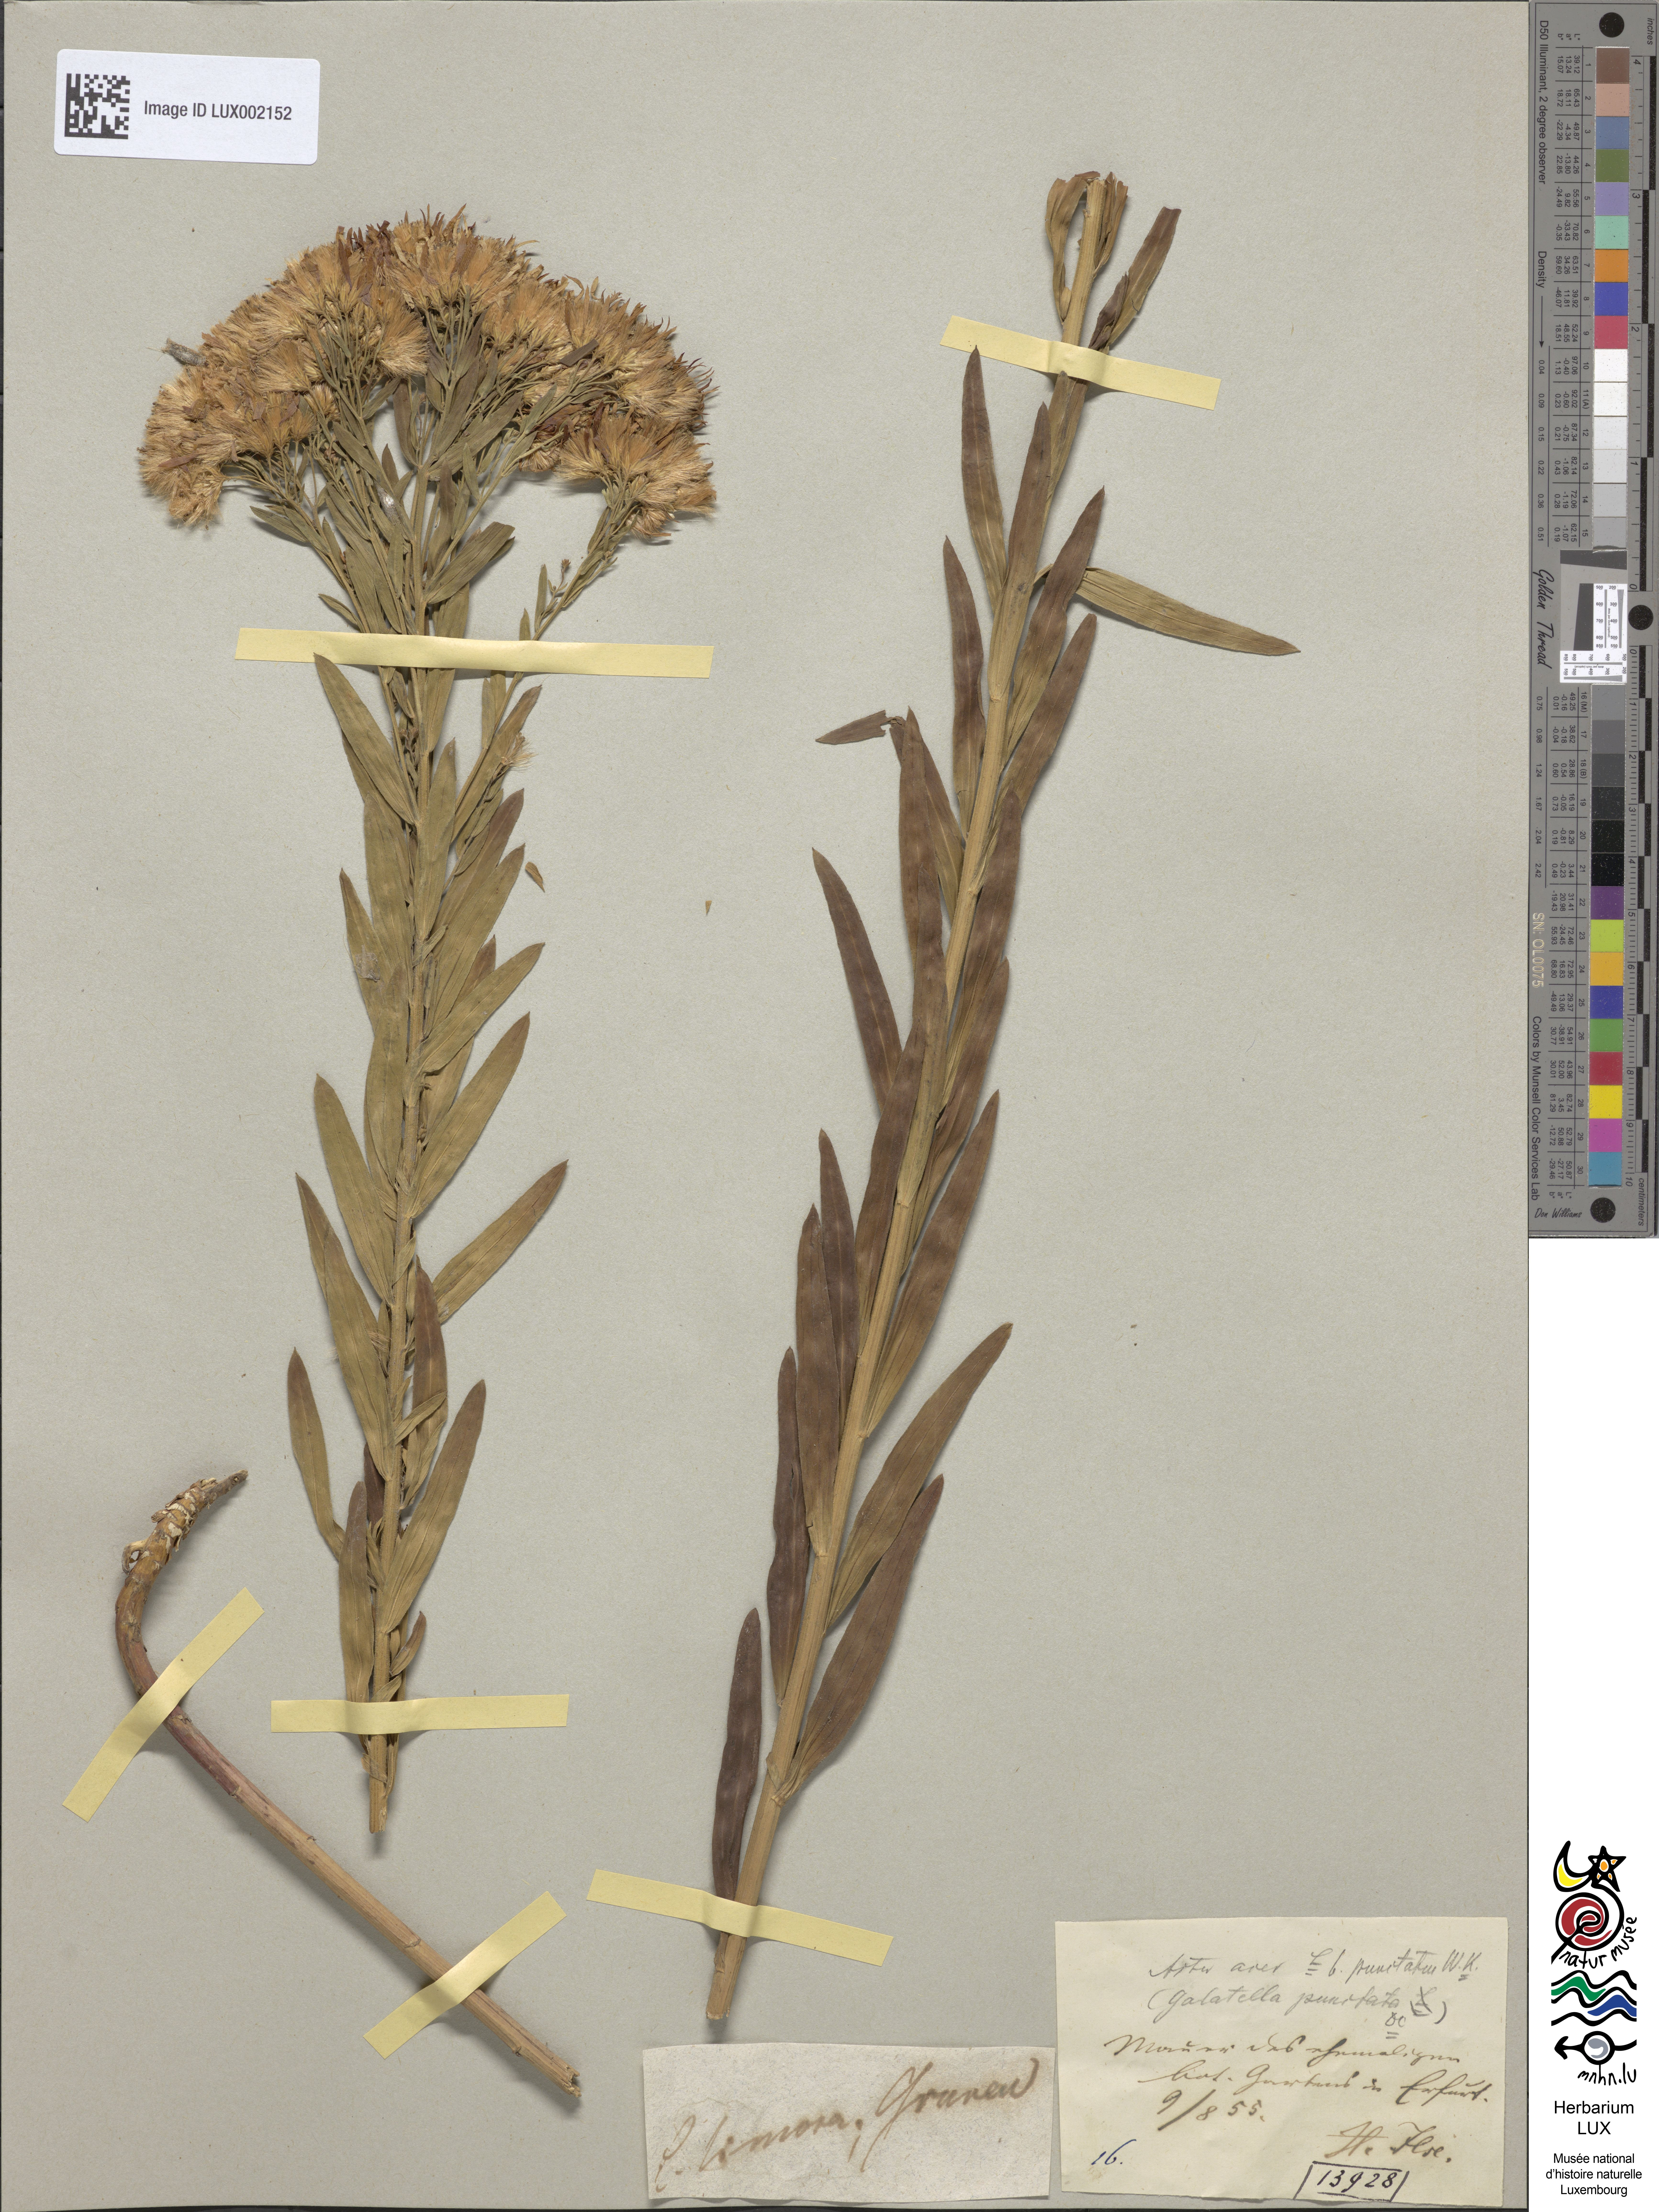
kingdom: Plantae
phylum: Tracheophyta
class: Magnoliopsida
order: Asterales
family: Asteraceae
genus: Galatella
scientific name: Galatella sedifolia
